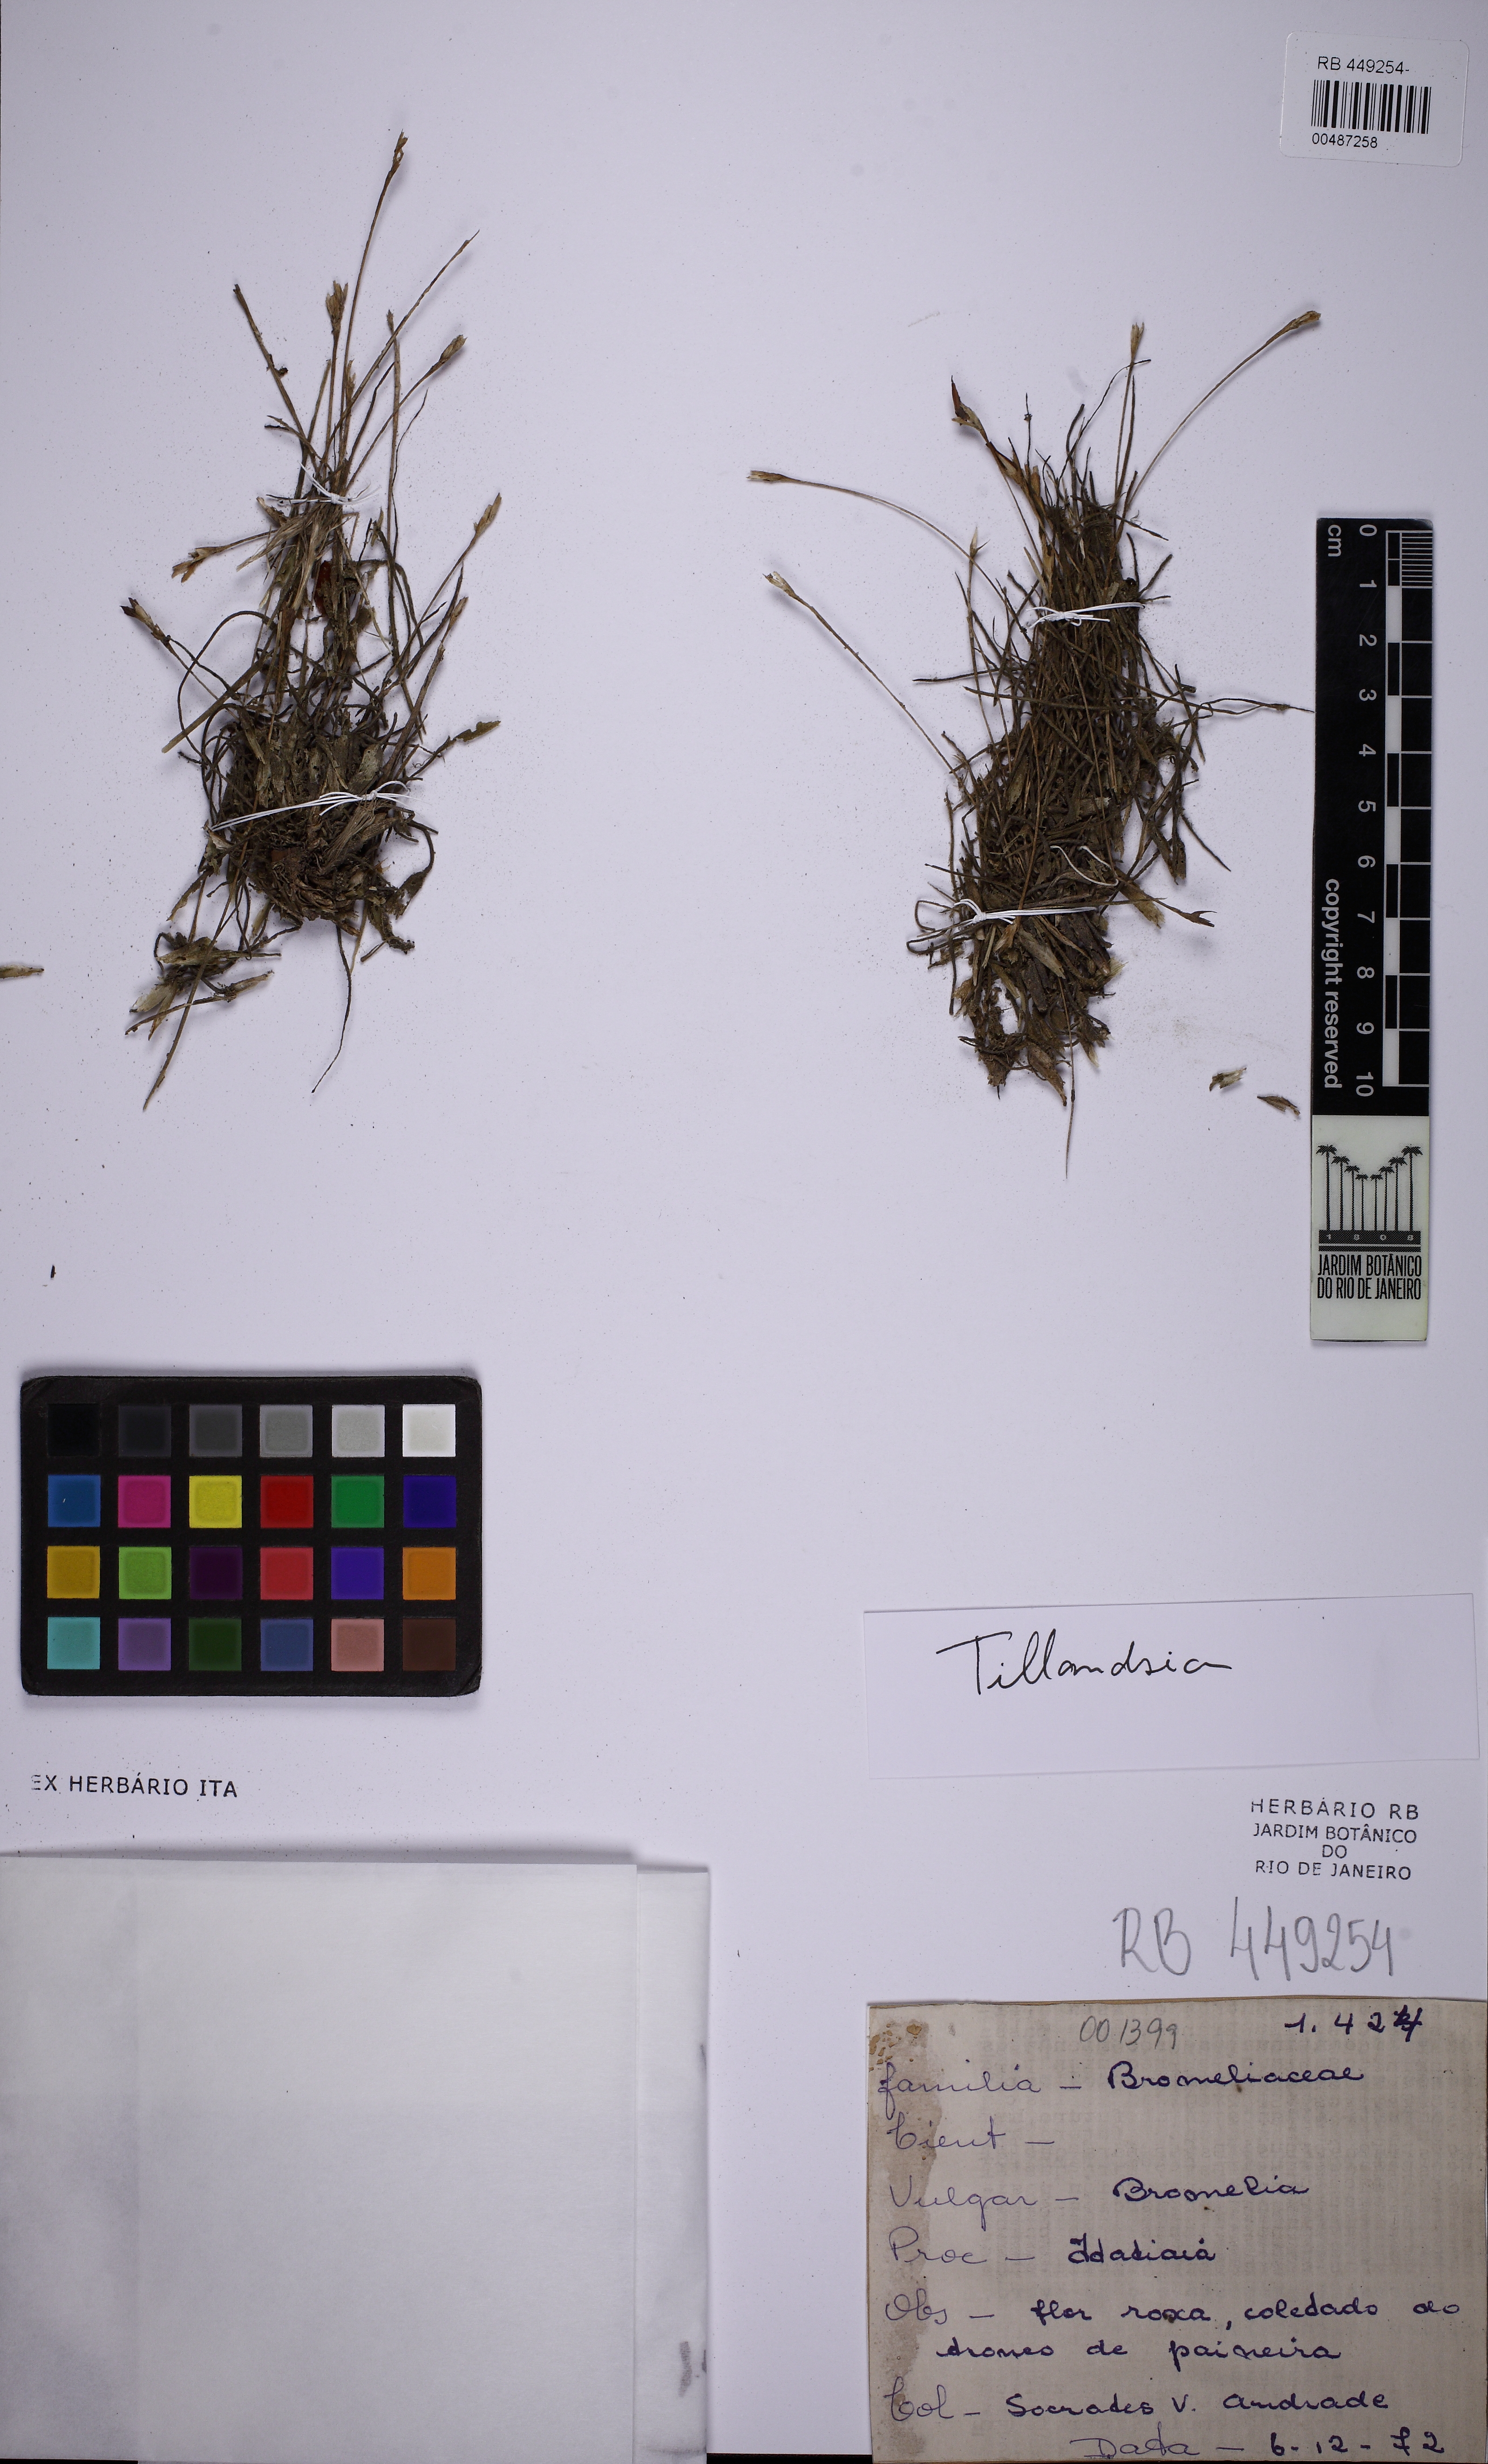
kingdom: Plantae
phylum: Tracheophyta
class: Liliopsida
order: Poales
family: Bromeliaceae
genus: Tillandsia
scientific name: Tillandsia recurvata
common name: Small ballmoss
